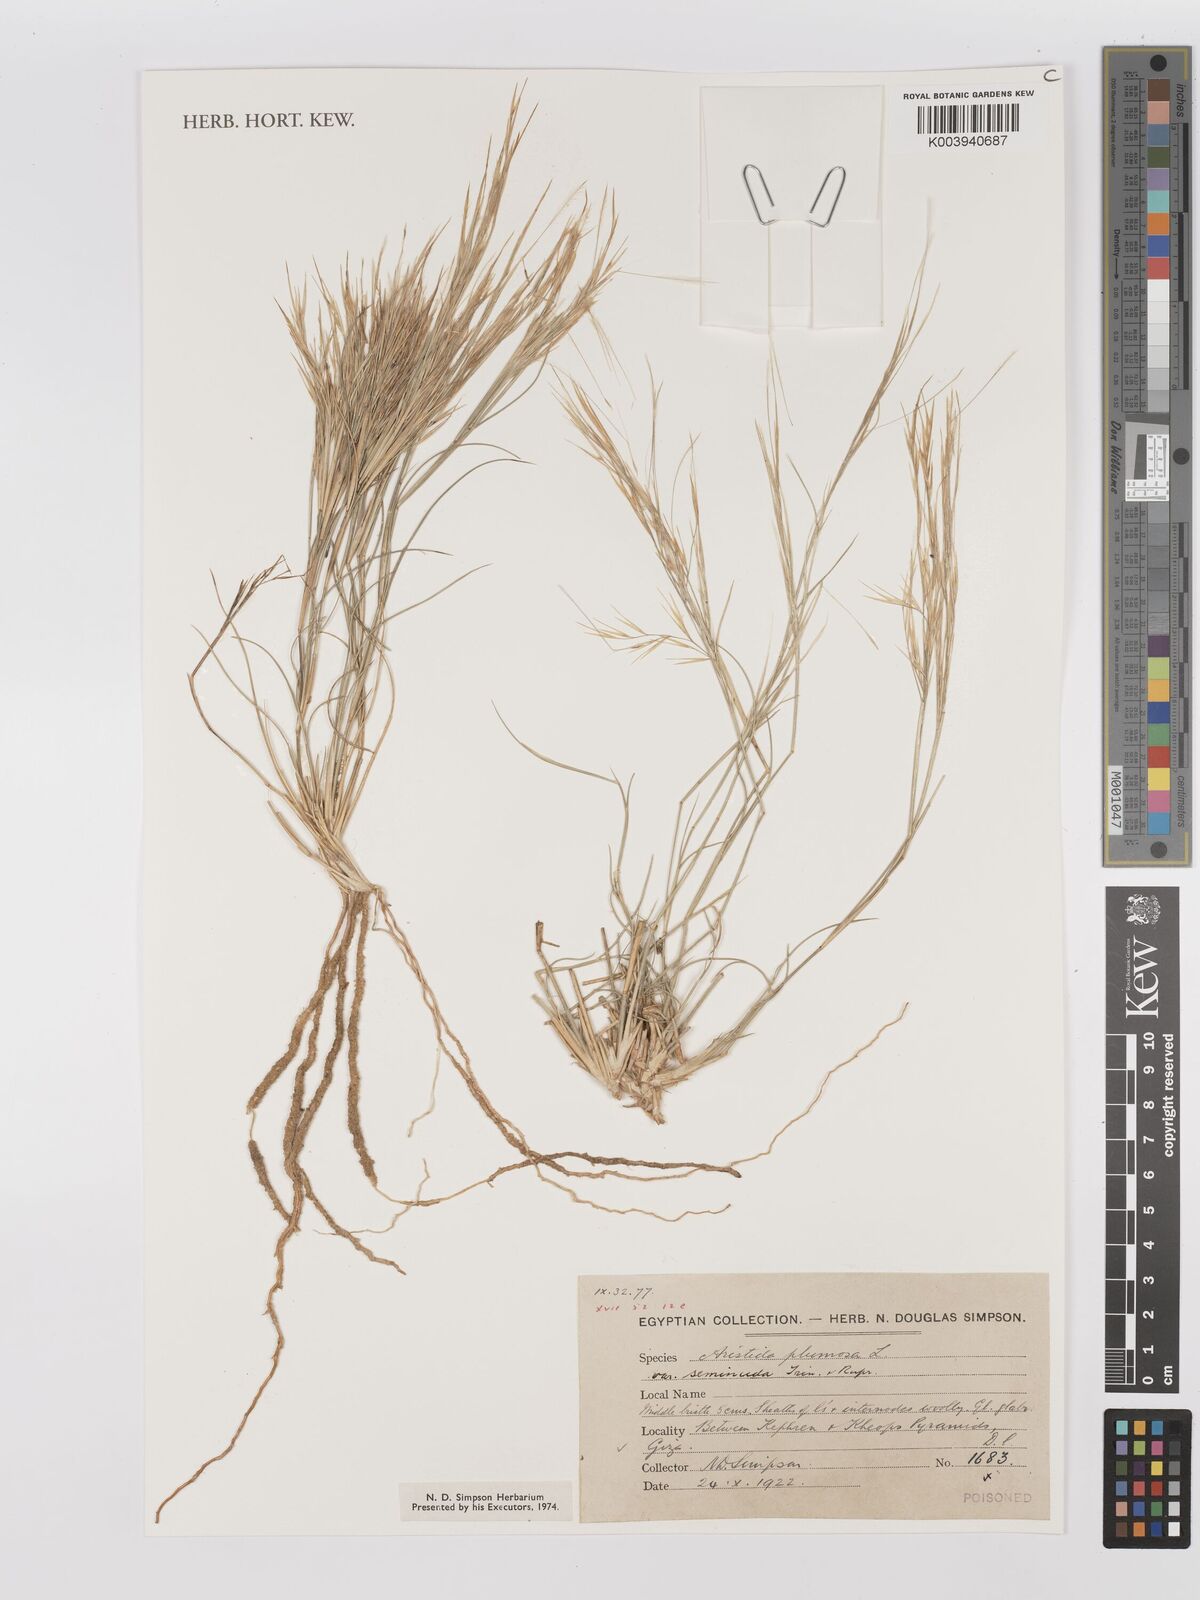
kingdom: Plantae
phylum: Tracheophyta
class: Liliopsida
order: Poales
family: Poaceae
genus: Stipagrostis
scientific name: Stipagrostis plumosa
